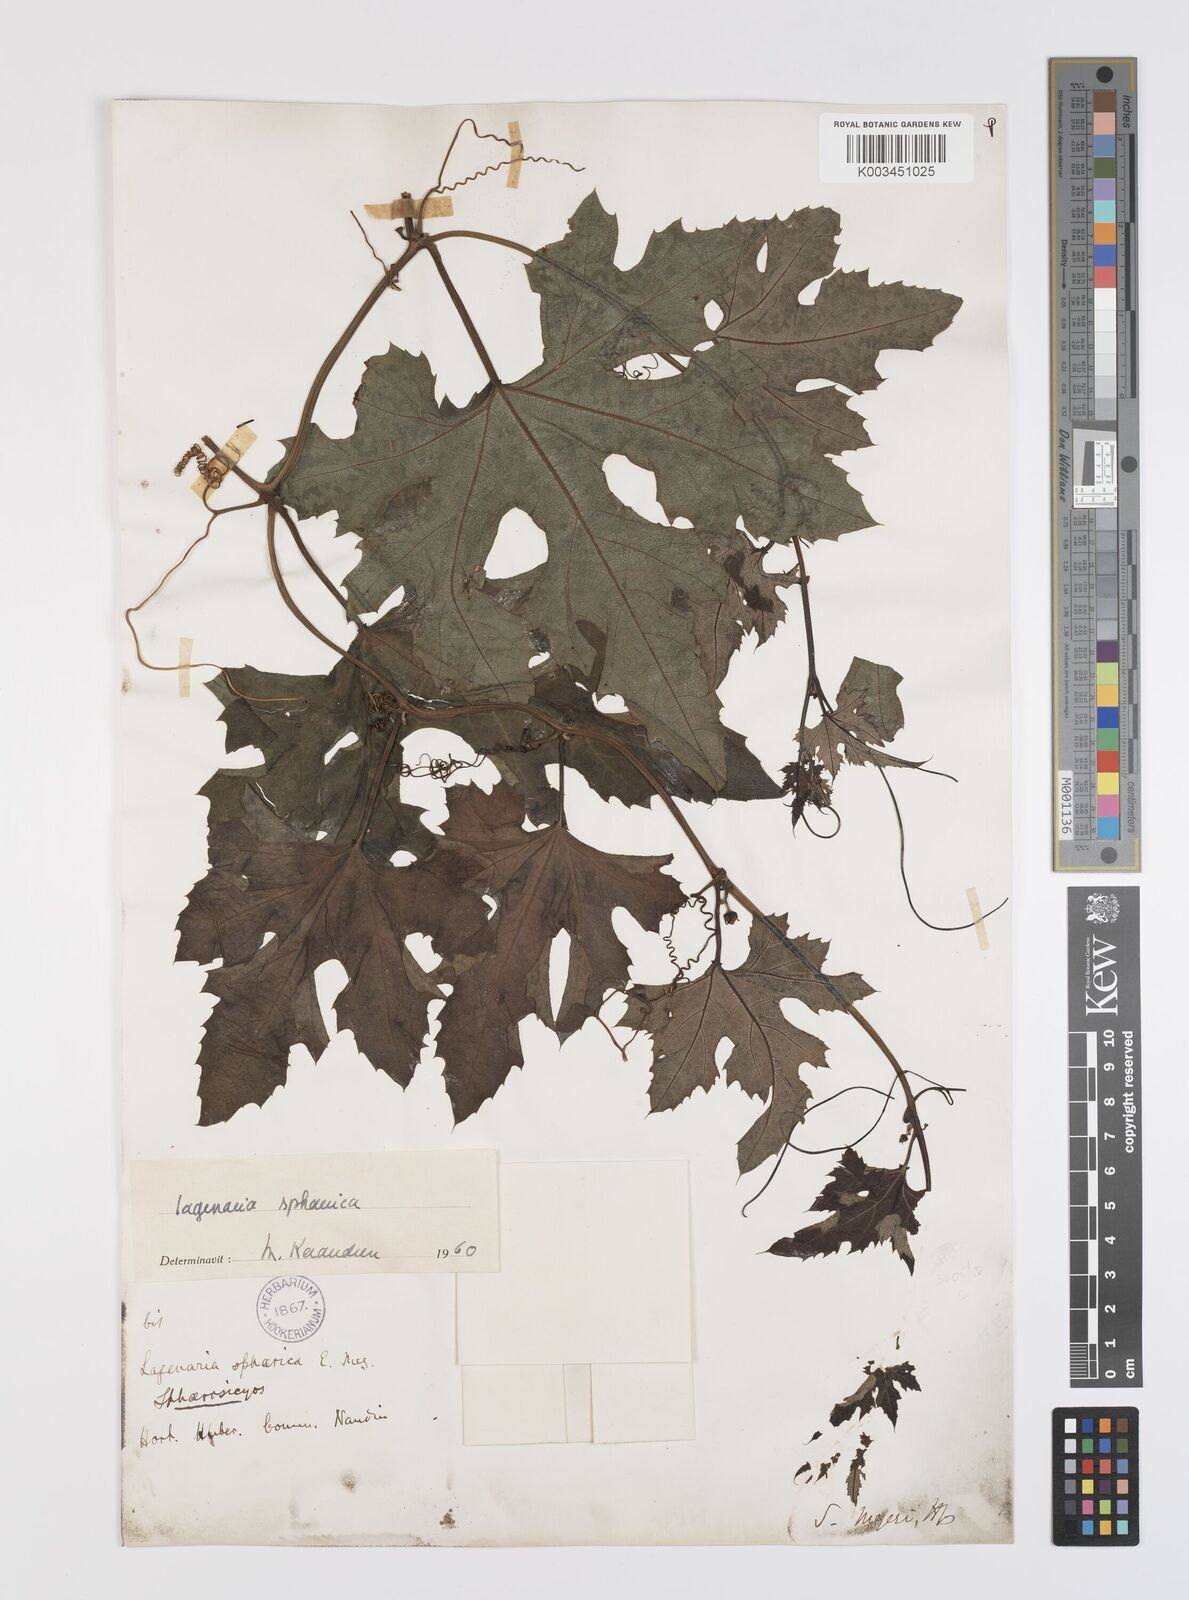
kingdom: Plantae
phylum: Tracheophyta
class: Magnoliopsida
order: Cucurbitales
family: Cucurbitaceae
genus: Lagenaria
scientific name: Lagenaria sphaerica
